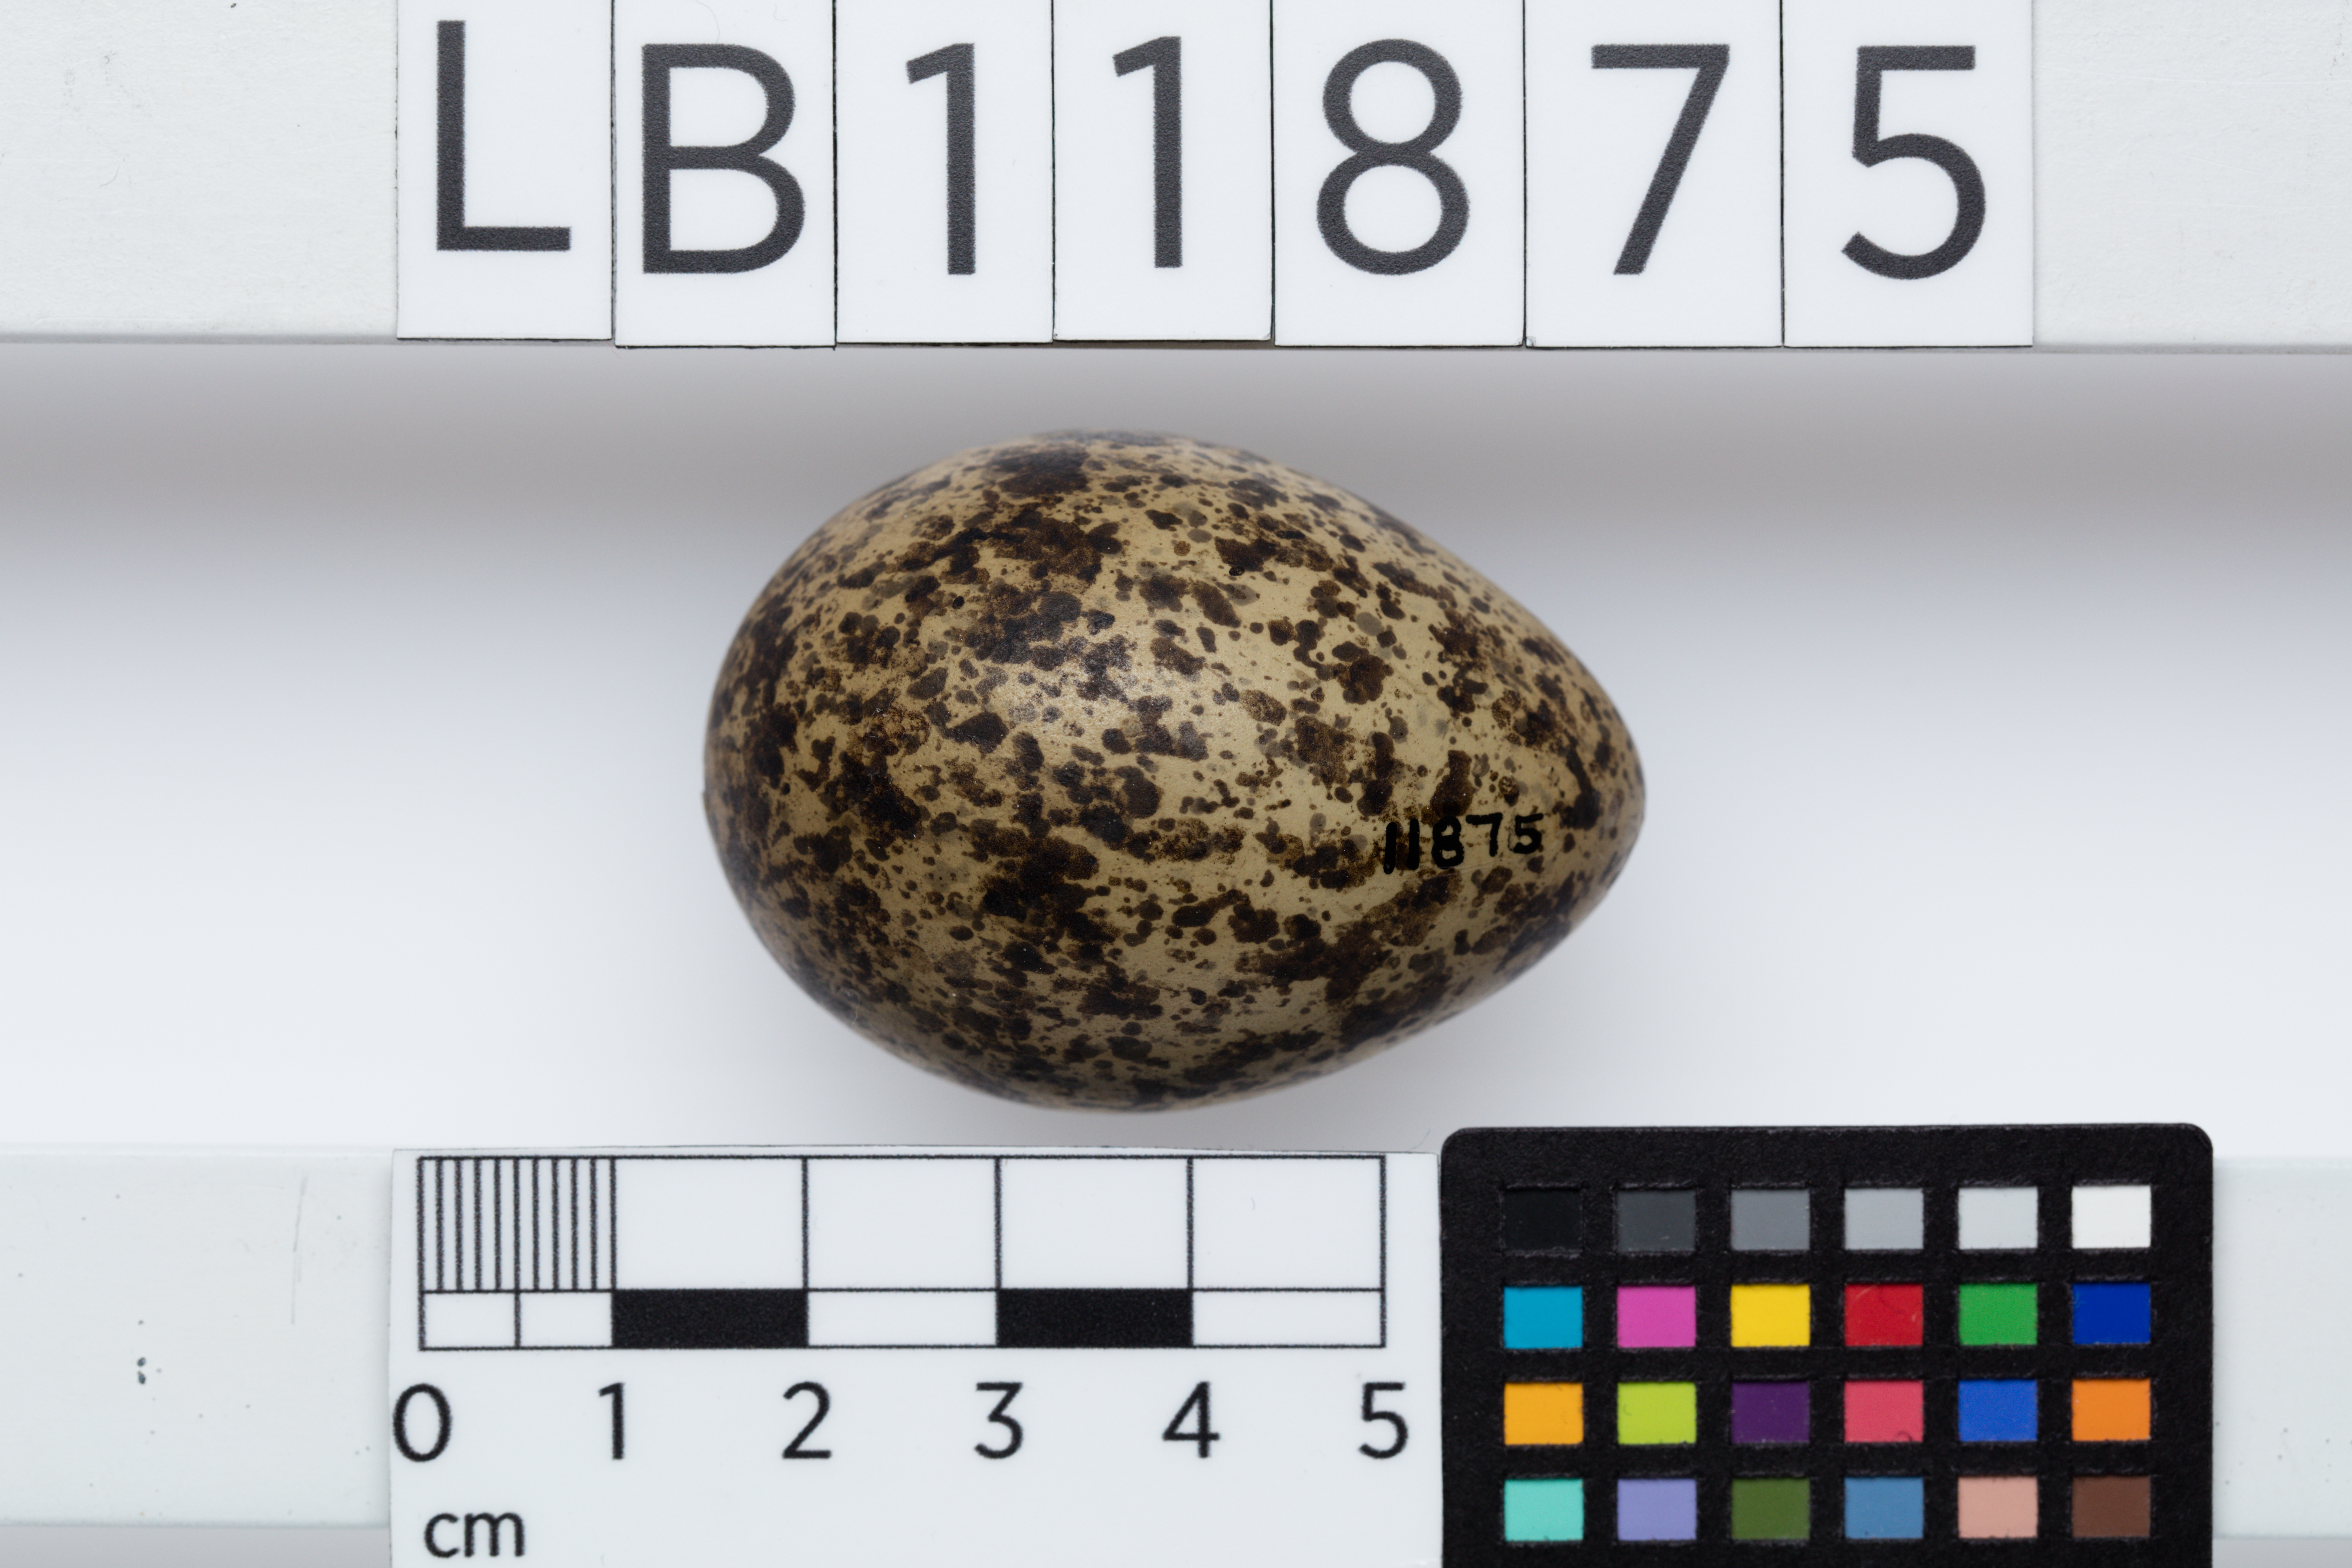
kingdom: Animalia
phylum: Chordata
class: Aves
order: Charadriiformes
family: Charadriidae
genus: Vanellus
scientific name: Vanellus miles
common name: Masked lapwing
